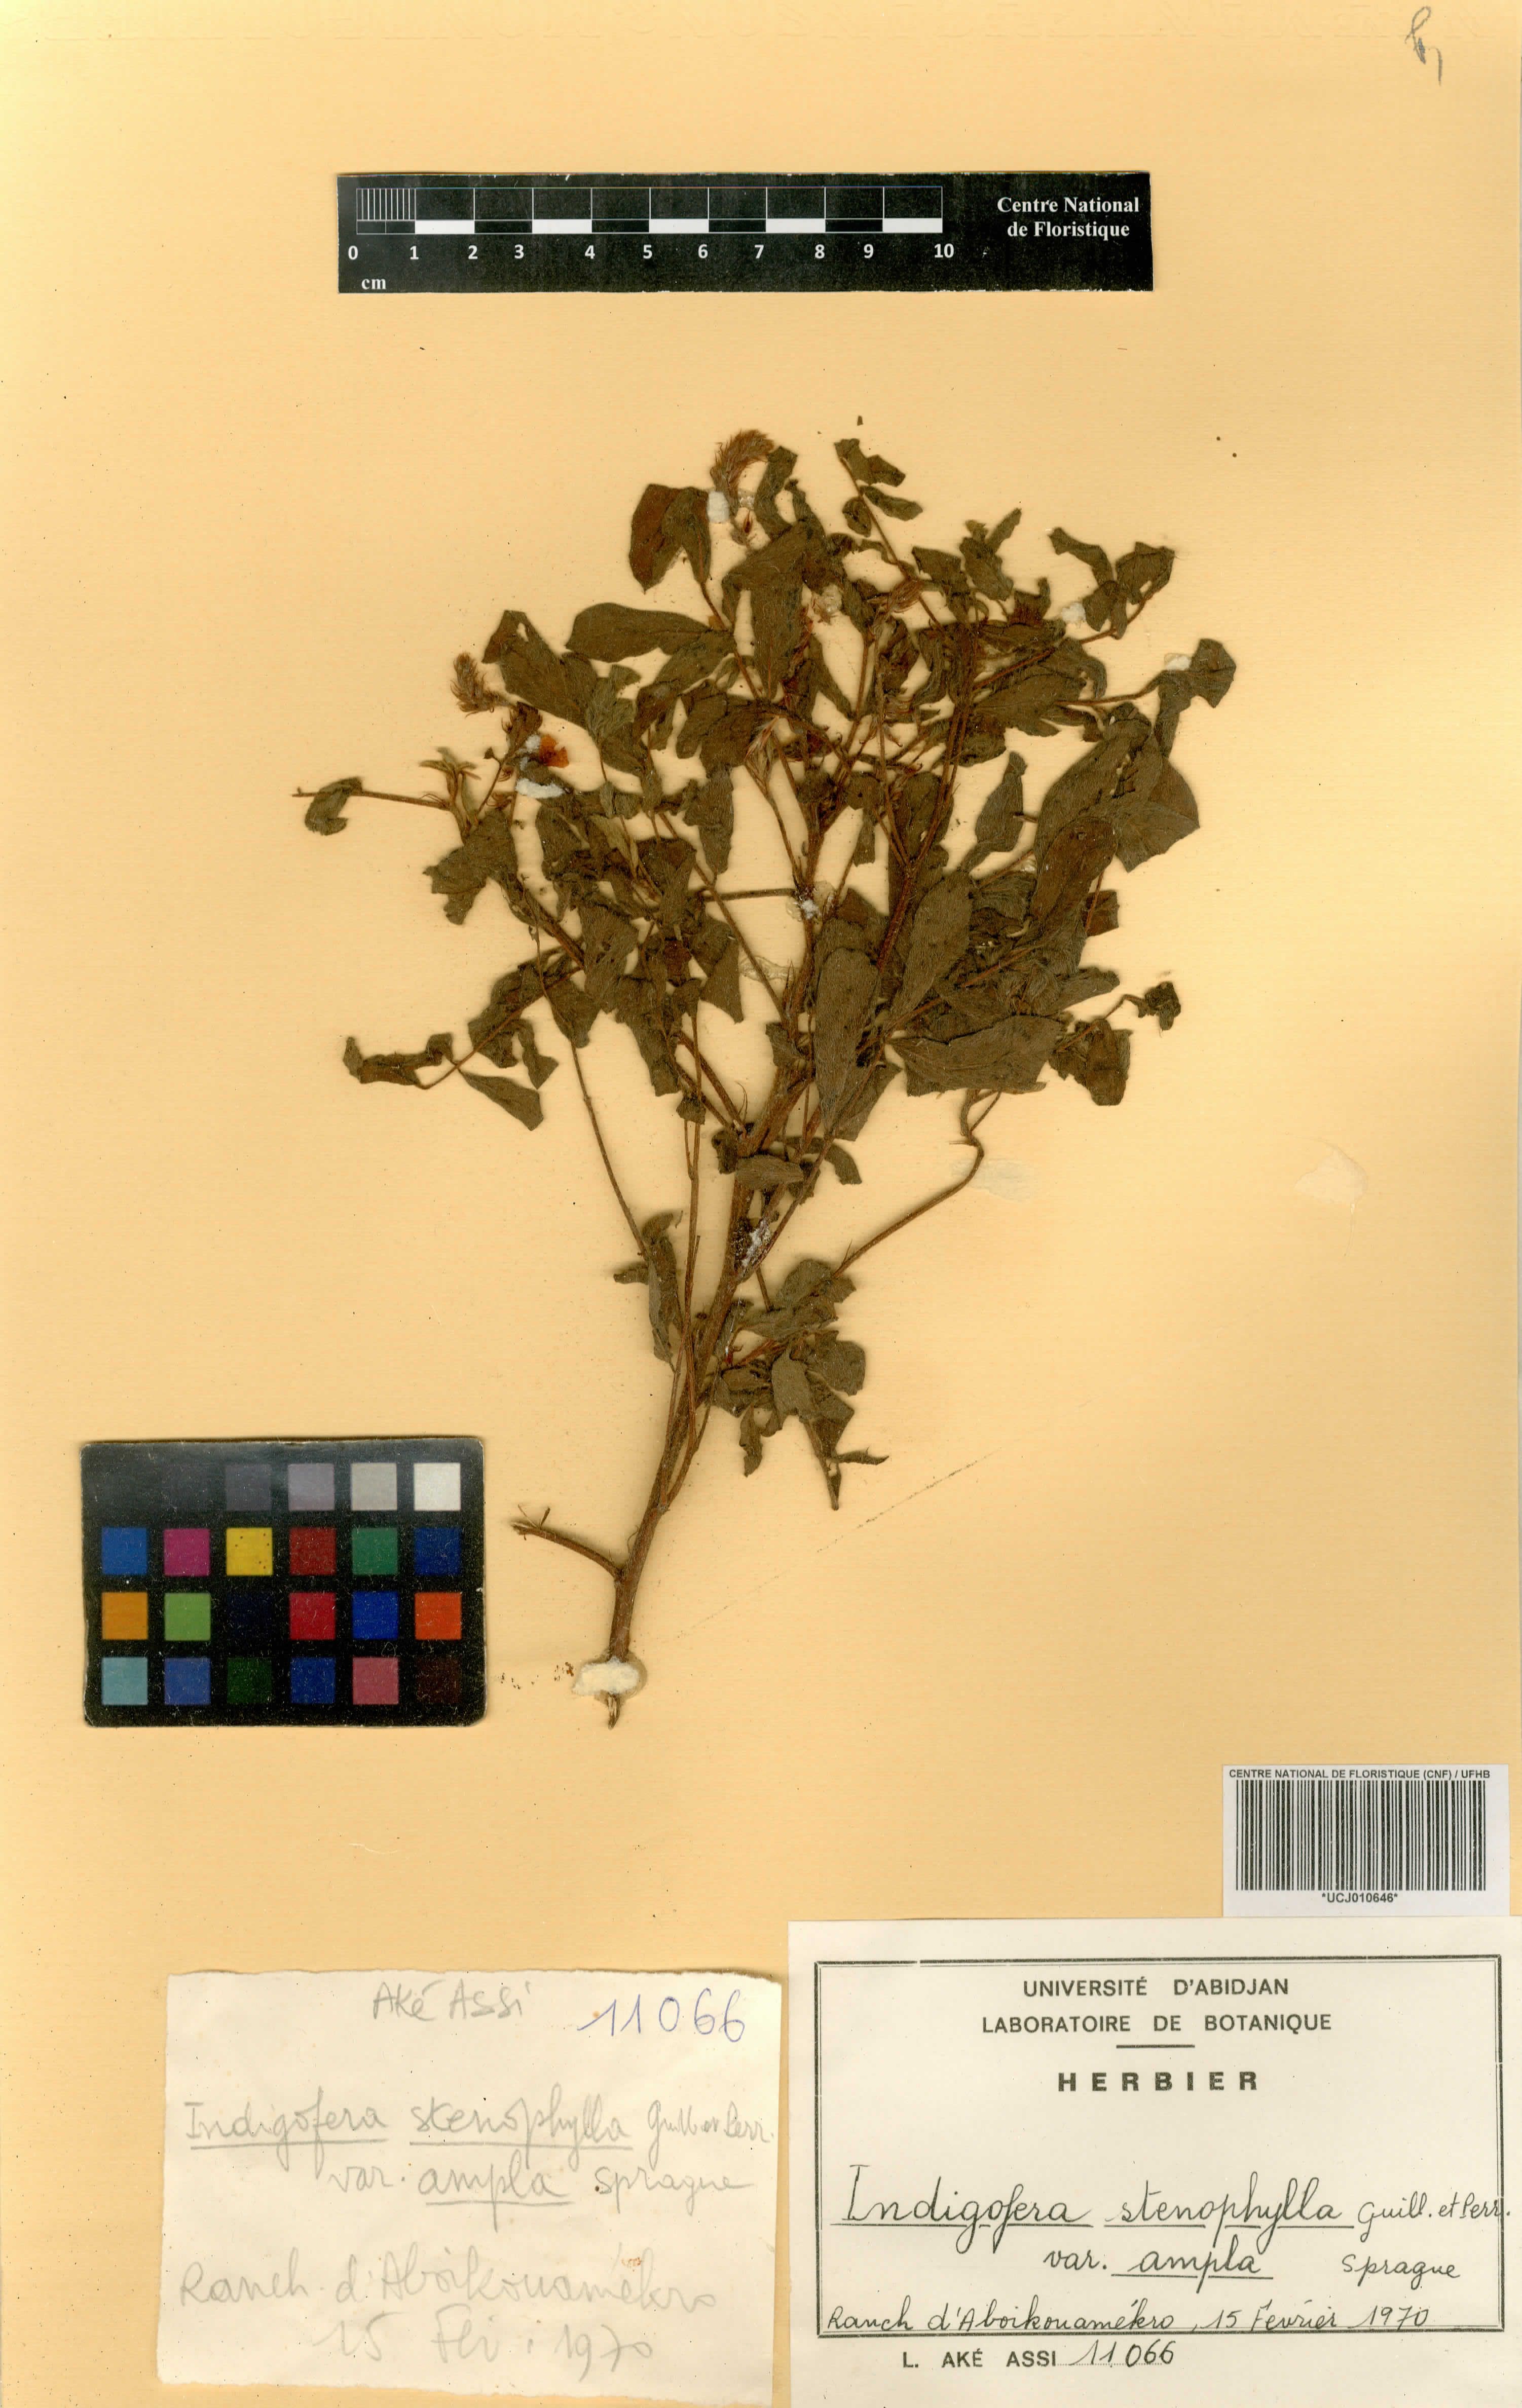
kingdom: Plantae
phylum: Tracheophyta
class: Magnoliopsida
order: Fabales
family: Fabaceae
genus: Indigofera
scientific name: Indigofera suffruticosa
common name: Anil de pasto
